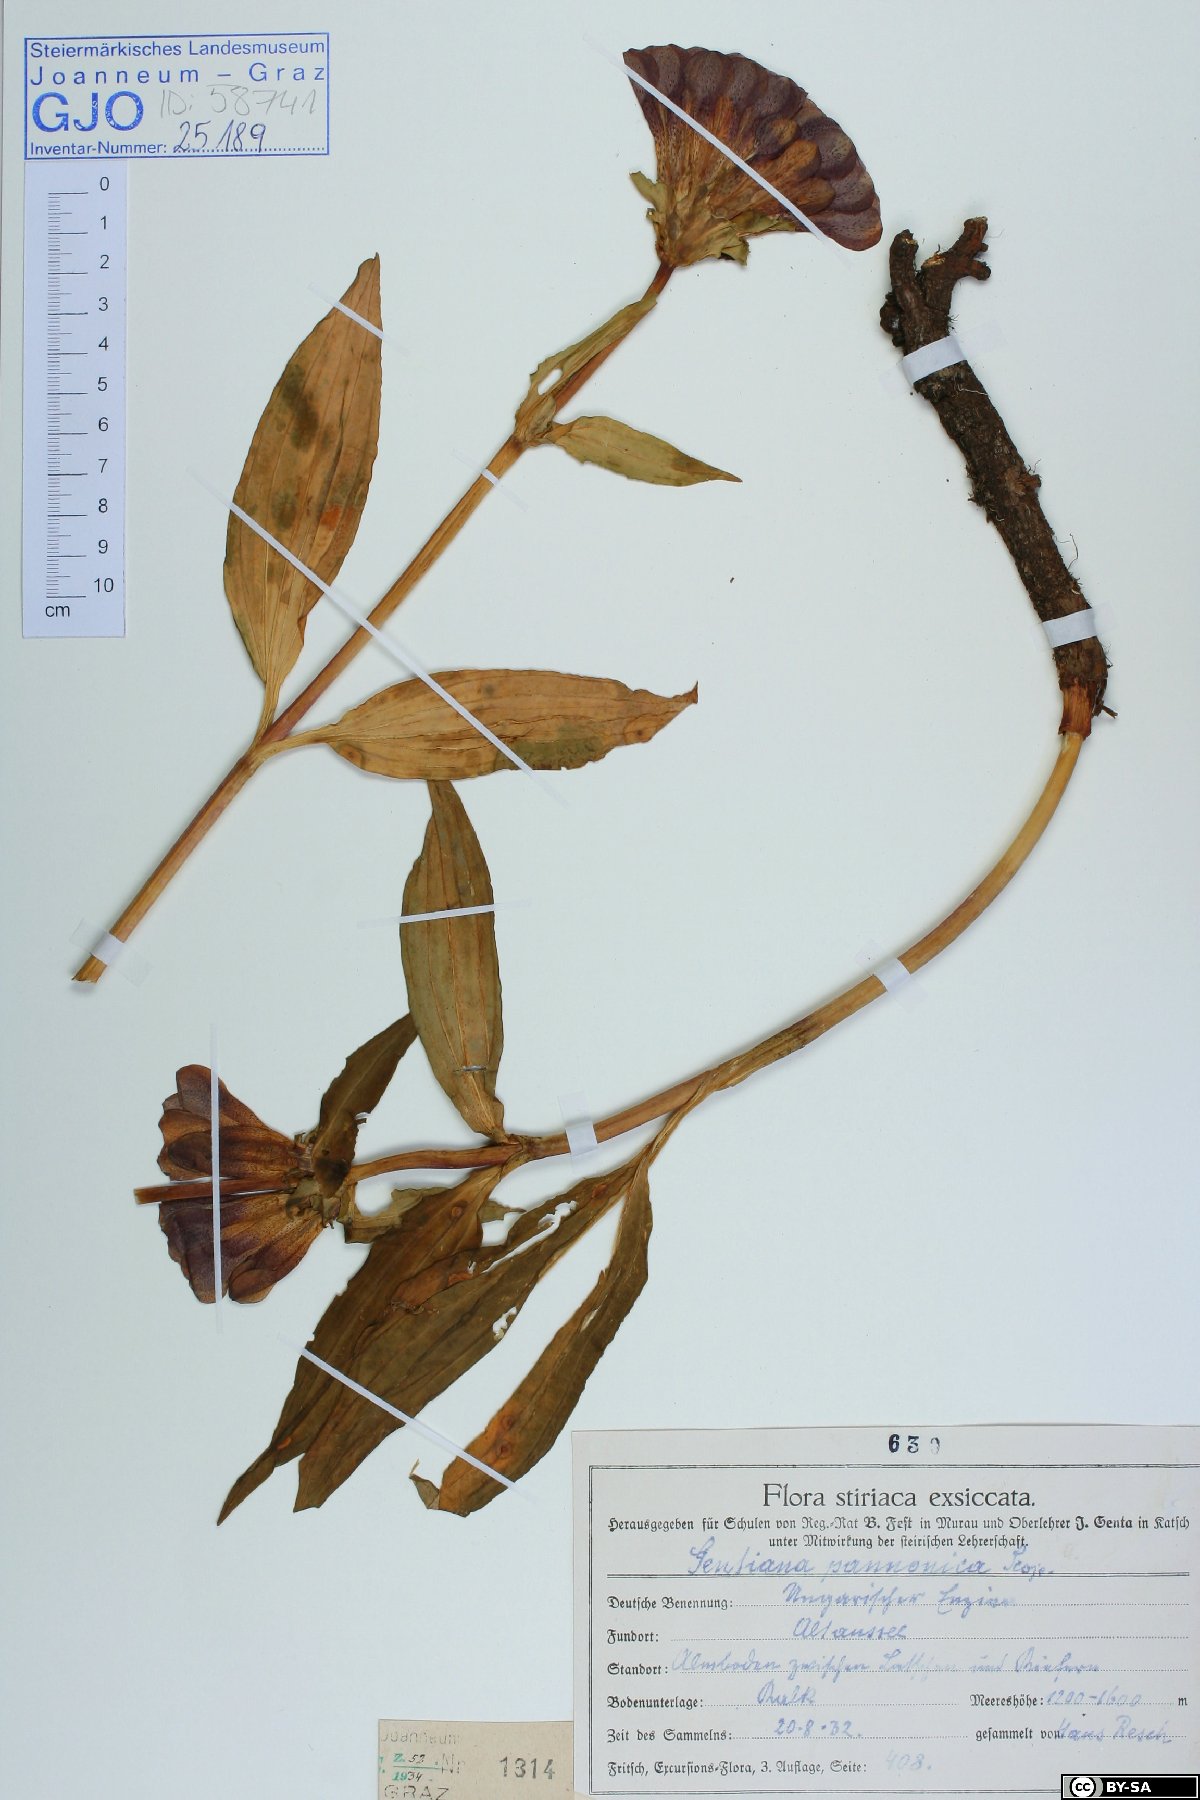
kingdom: Plantae
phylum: Tracheophyta
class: Magnoliopsida
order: Gentianales
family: Gentianaceae
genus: Gentiana
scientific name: Gentiana pannonica
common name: Hungarian gentian
